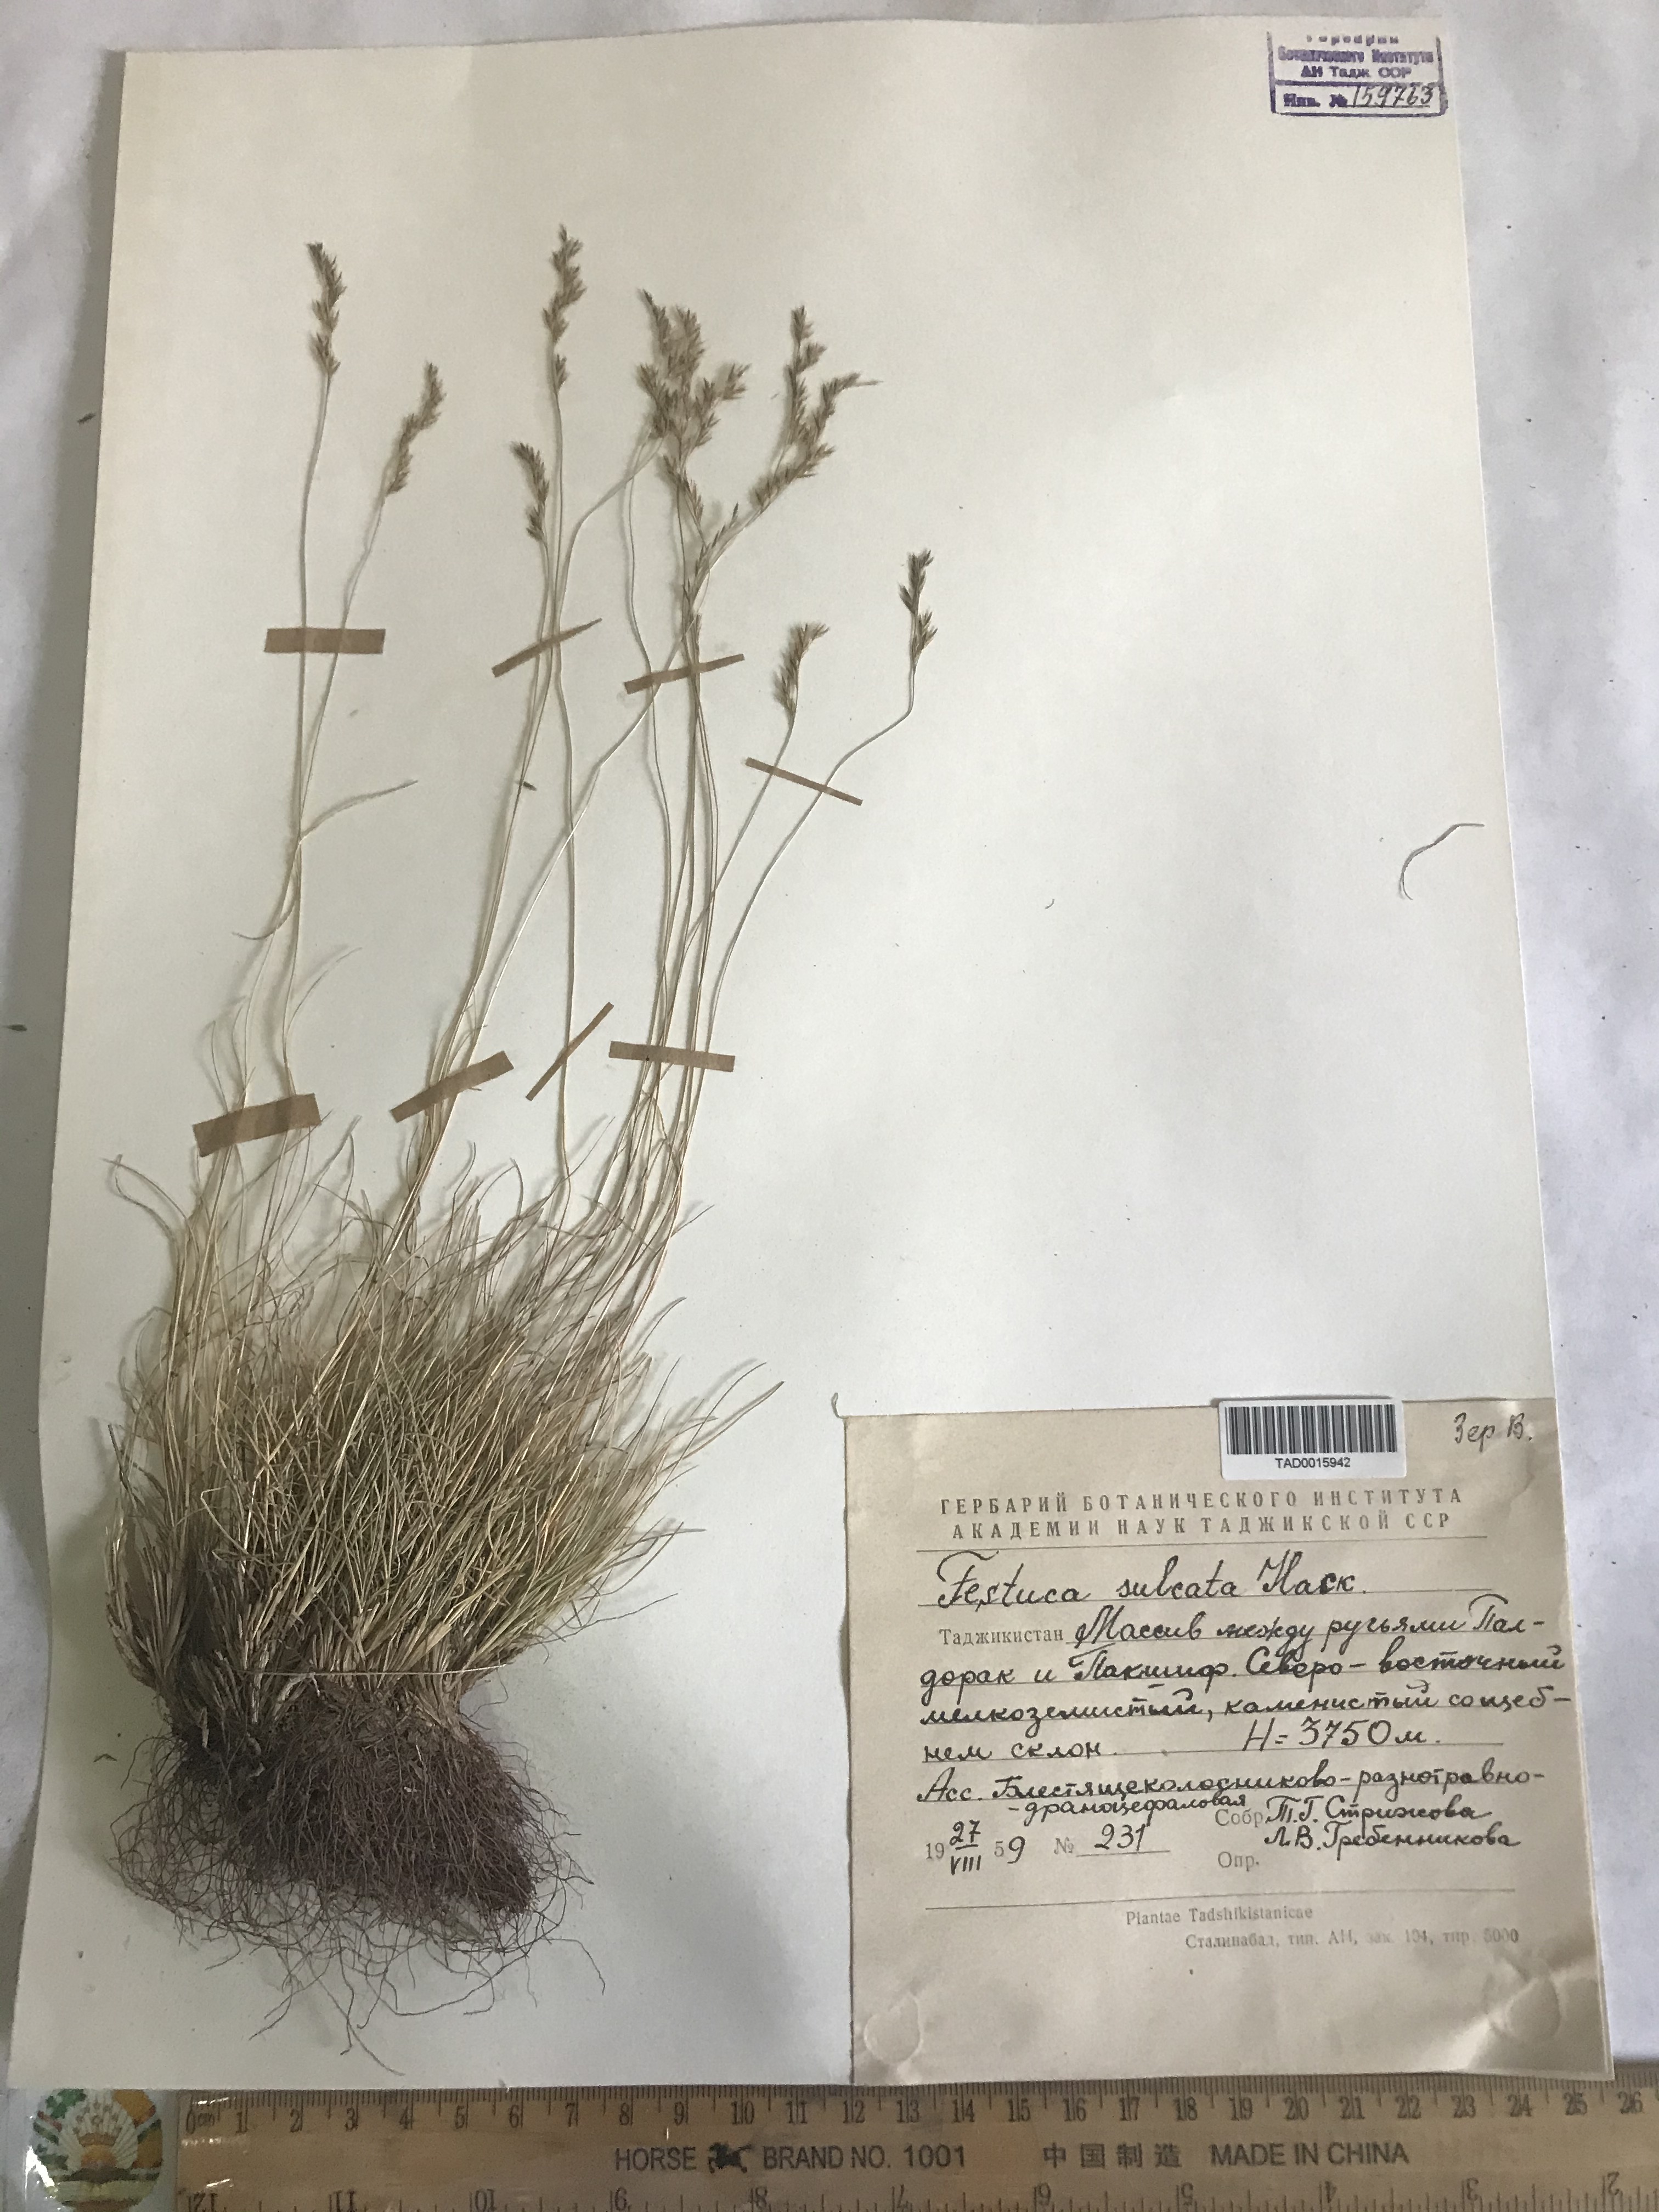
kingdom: Plantae
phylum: Tracheophyta
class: Liliopsida
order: Poales
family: Poaceae
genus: Festuca
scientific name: Festuca sulcata
